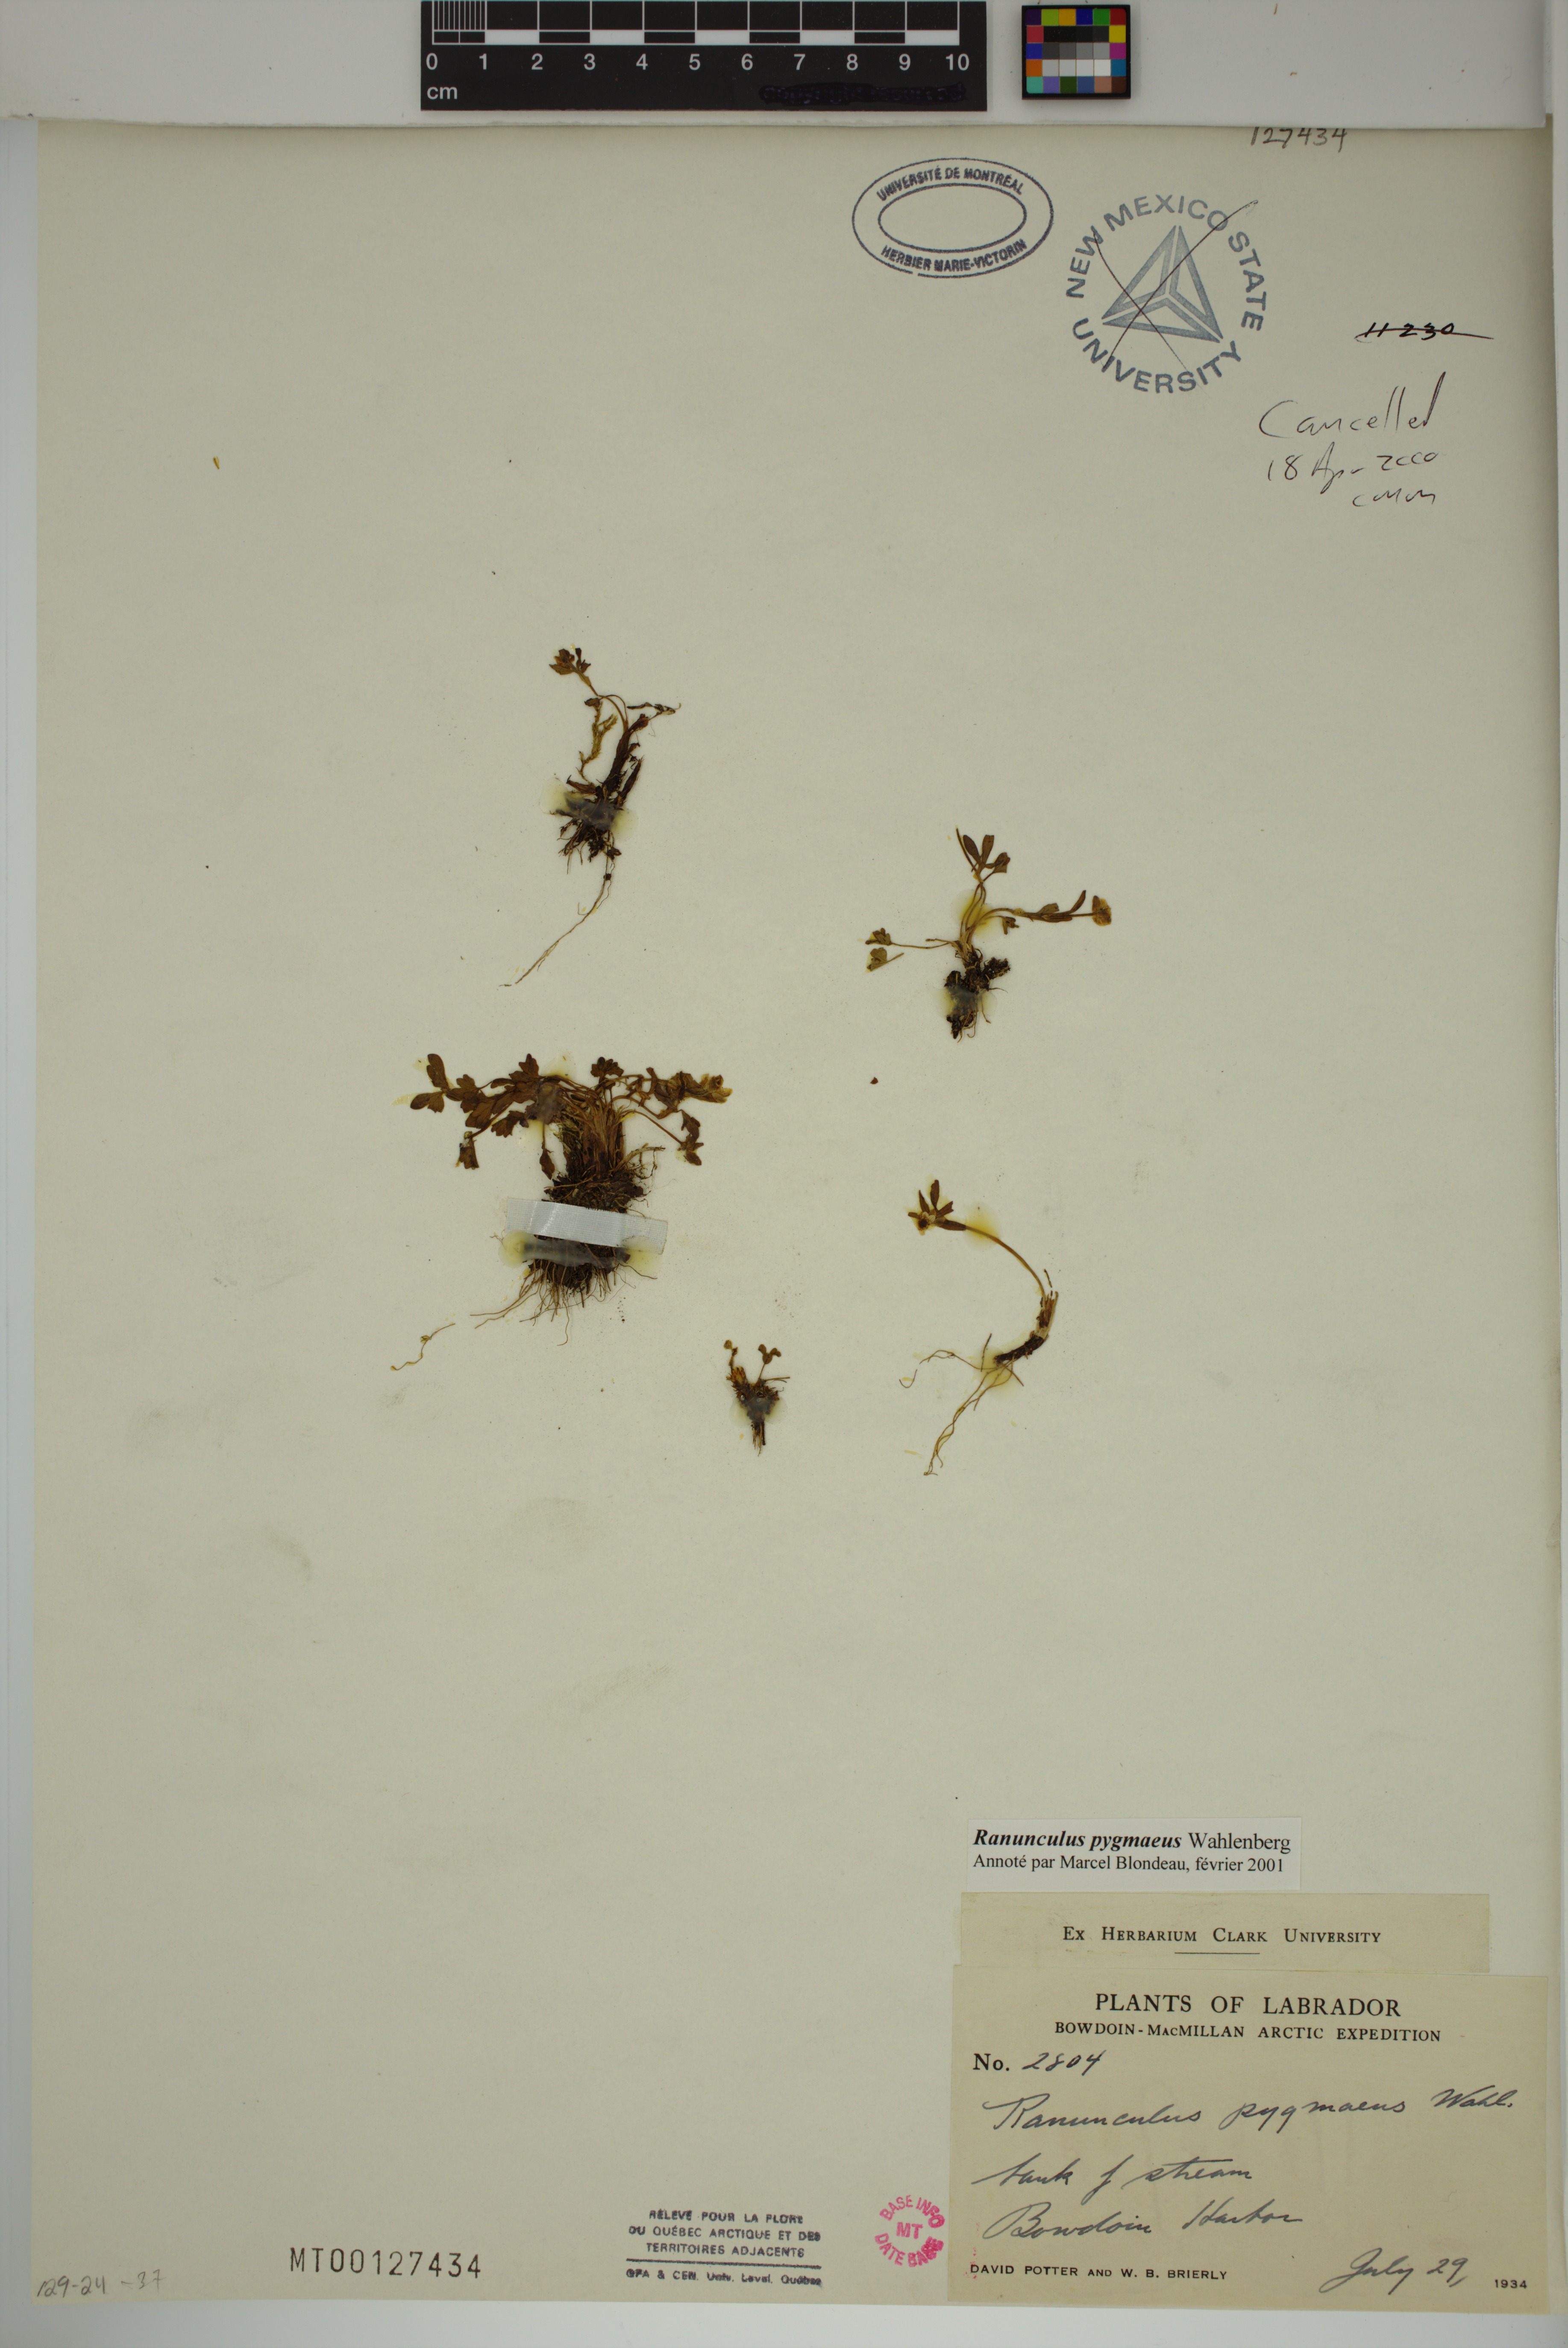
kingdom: Plantae
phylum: Tracheophyta
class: Magnoliopsida
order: Ranunculales
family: Ranunculaceae
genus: Ranunculus
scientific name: Ranunculus pygmaeus
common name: Dwarf buttercup
